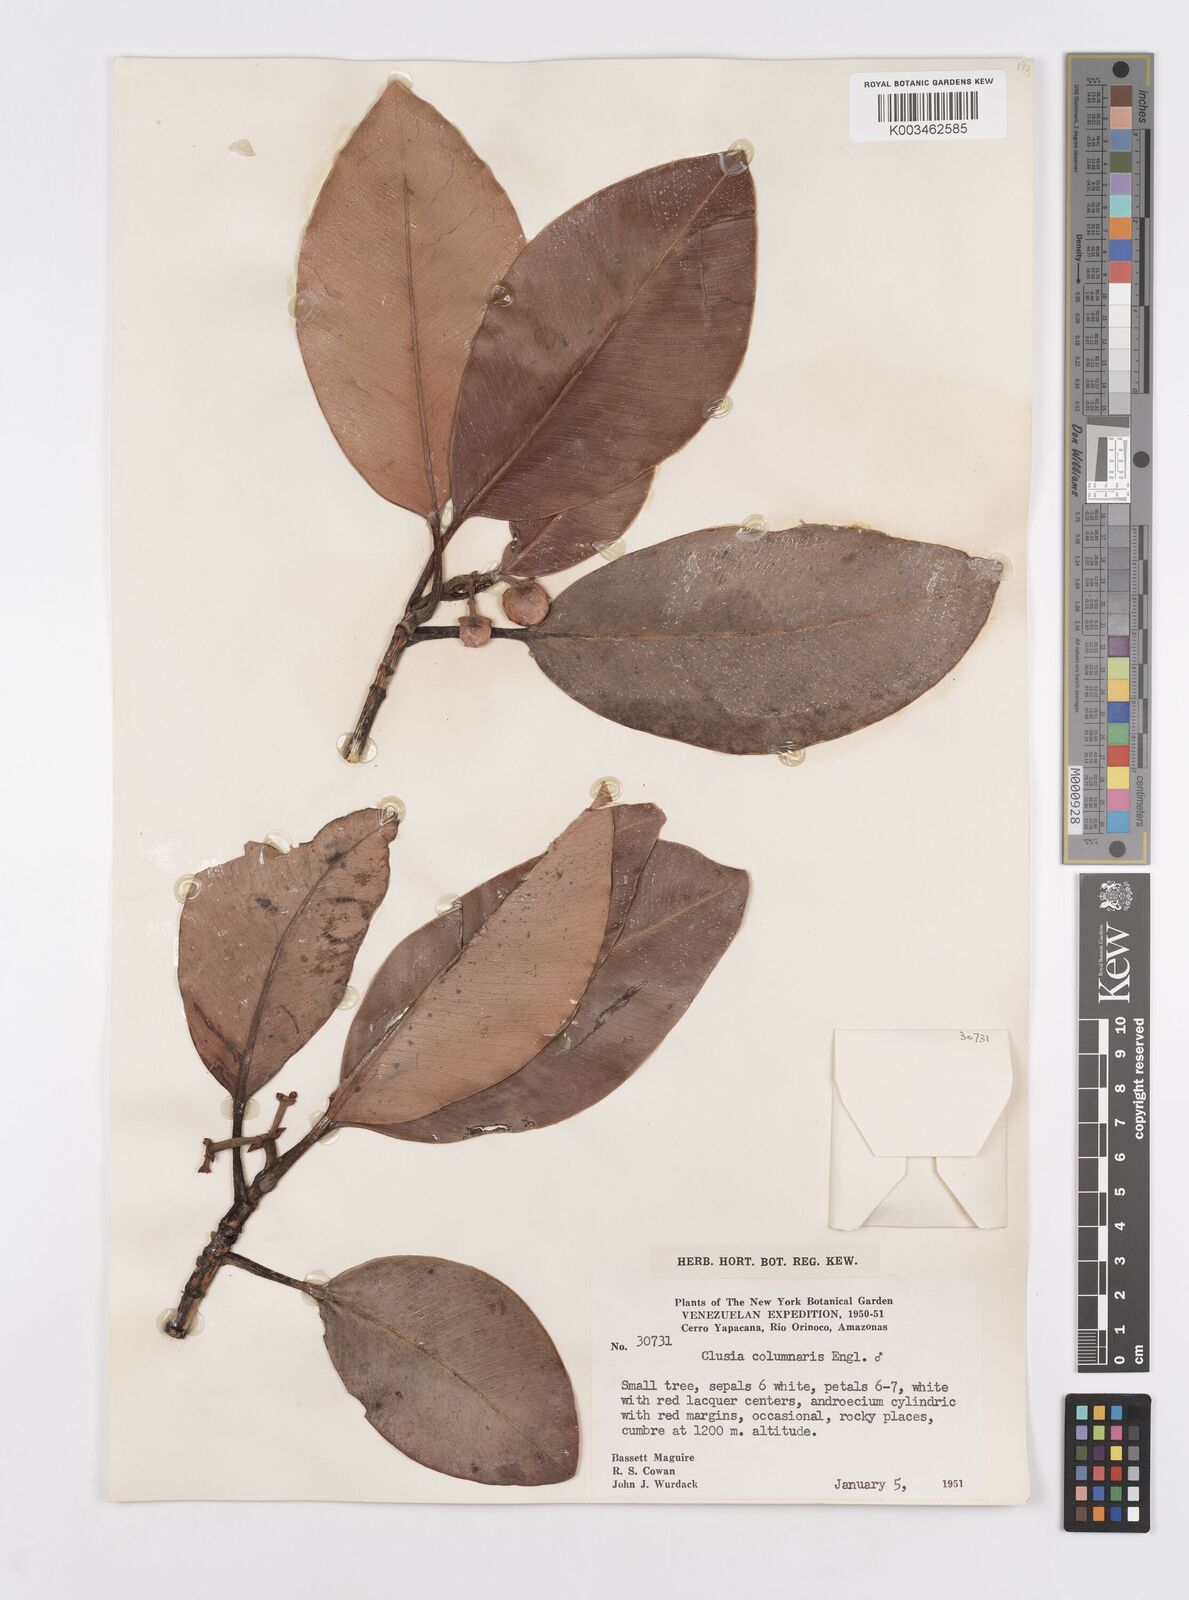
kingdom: Plantae
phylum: Tracheophyta
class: Magnoliopsida
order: Malpighiales
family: Clusiaceae
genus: Clusia
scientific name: Clusia columnaris
